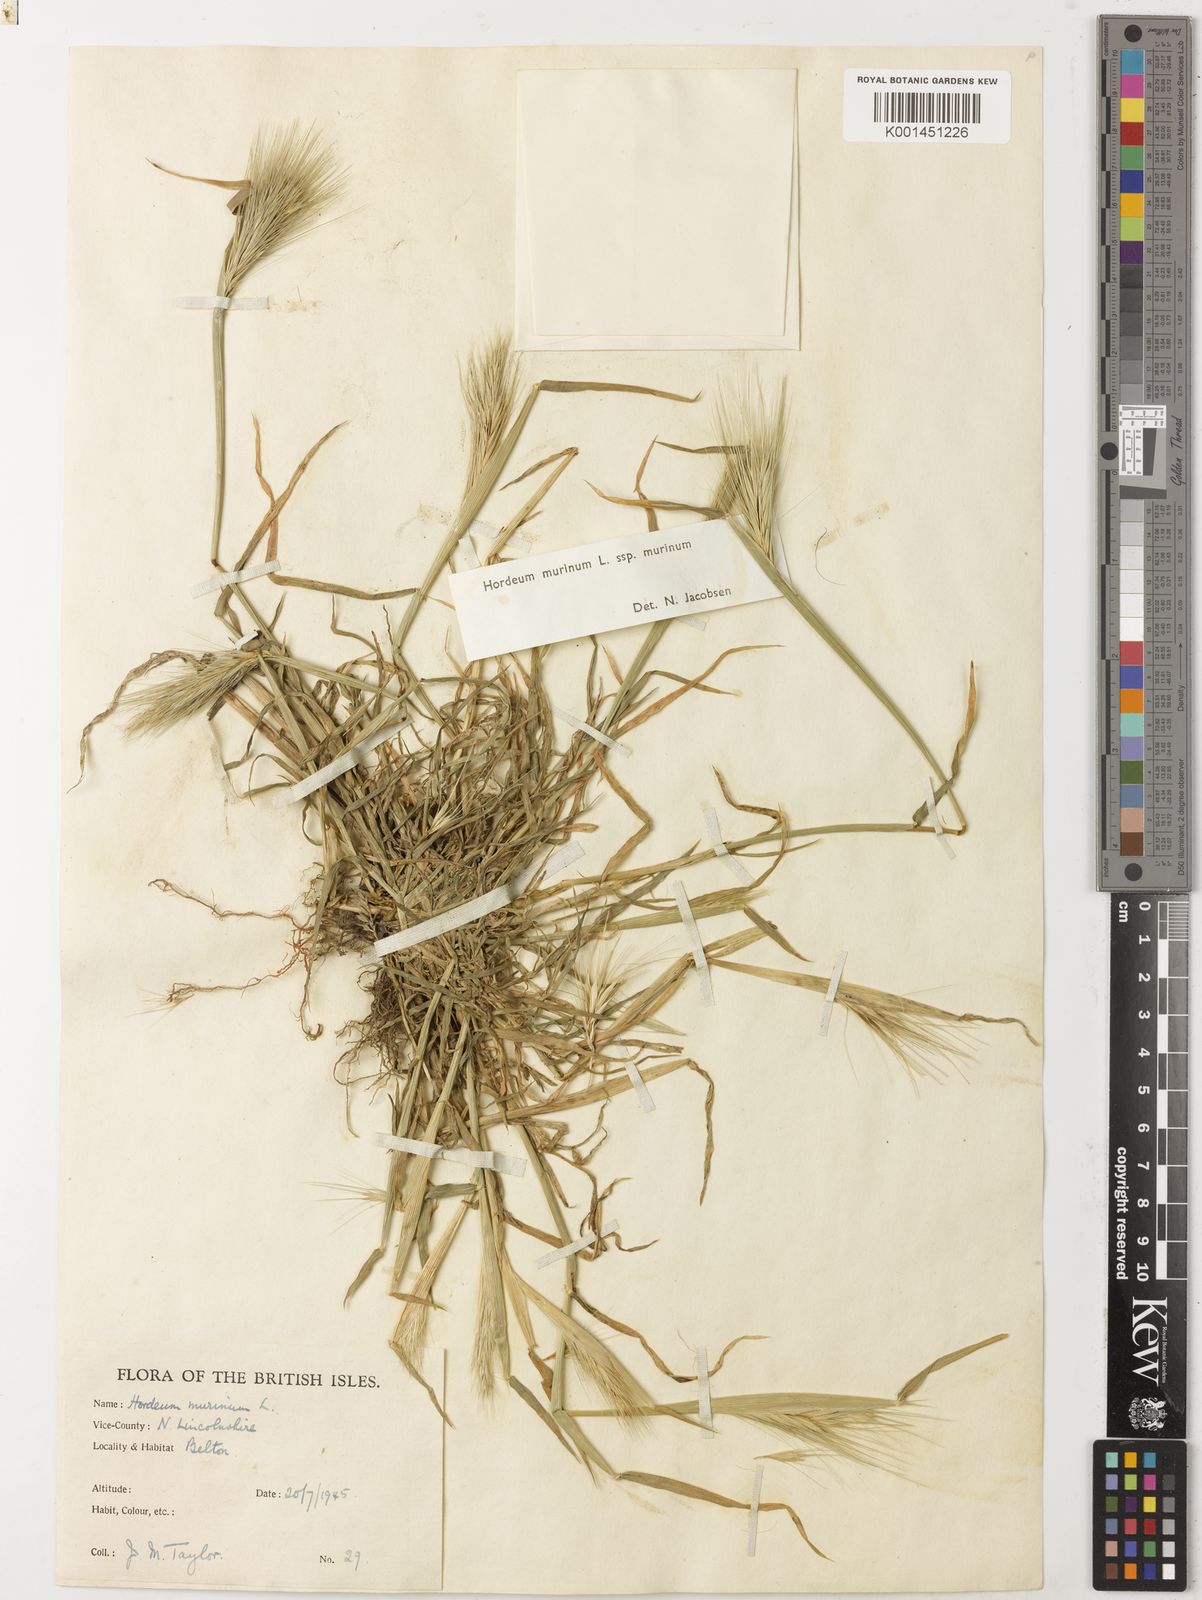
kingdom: Plantae
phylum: Tracheophyta
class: Liliopsida
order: Poales
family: Poaceae
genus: Hordeum
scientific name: Hordeum murinum
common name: Wall barley
